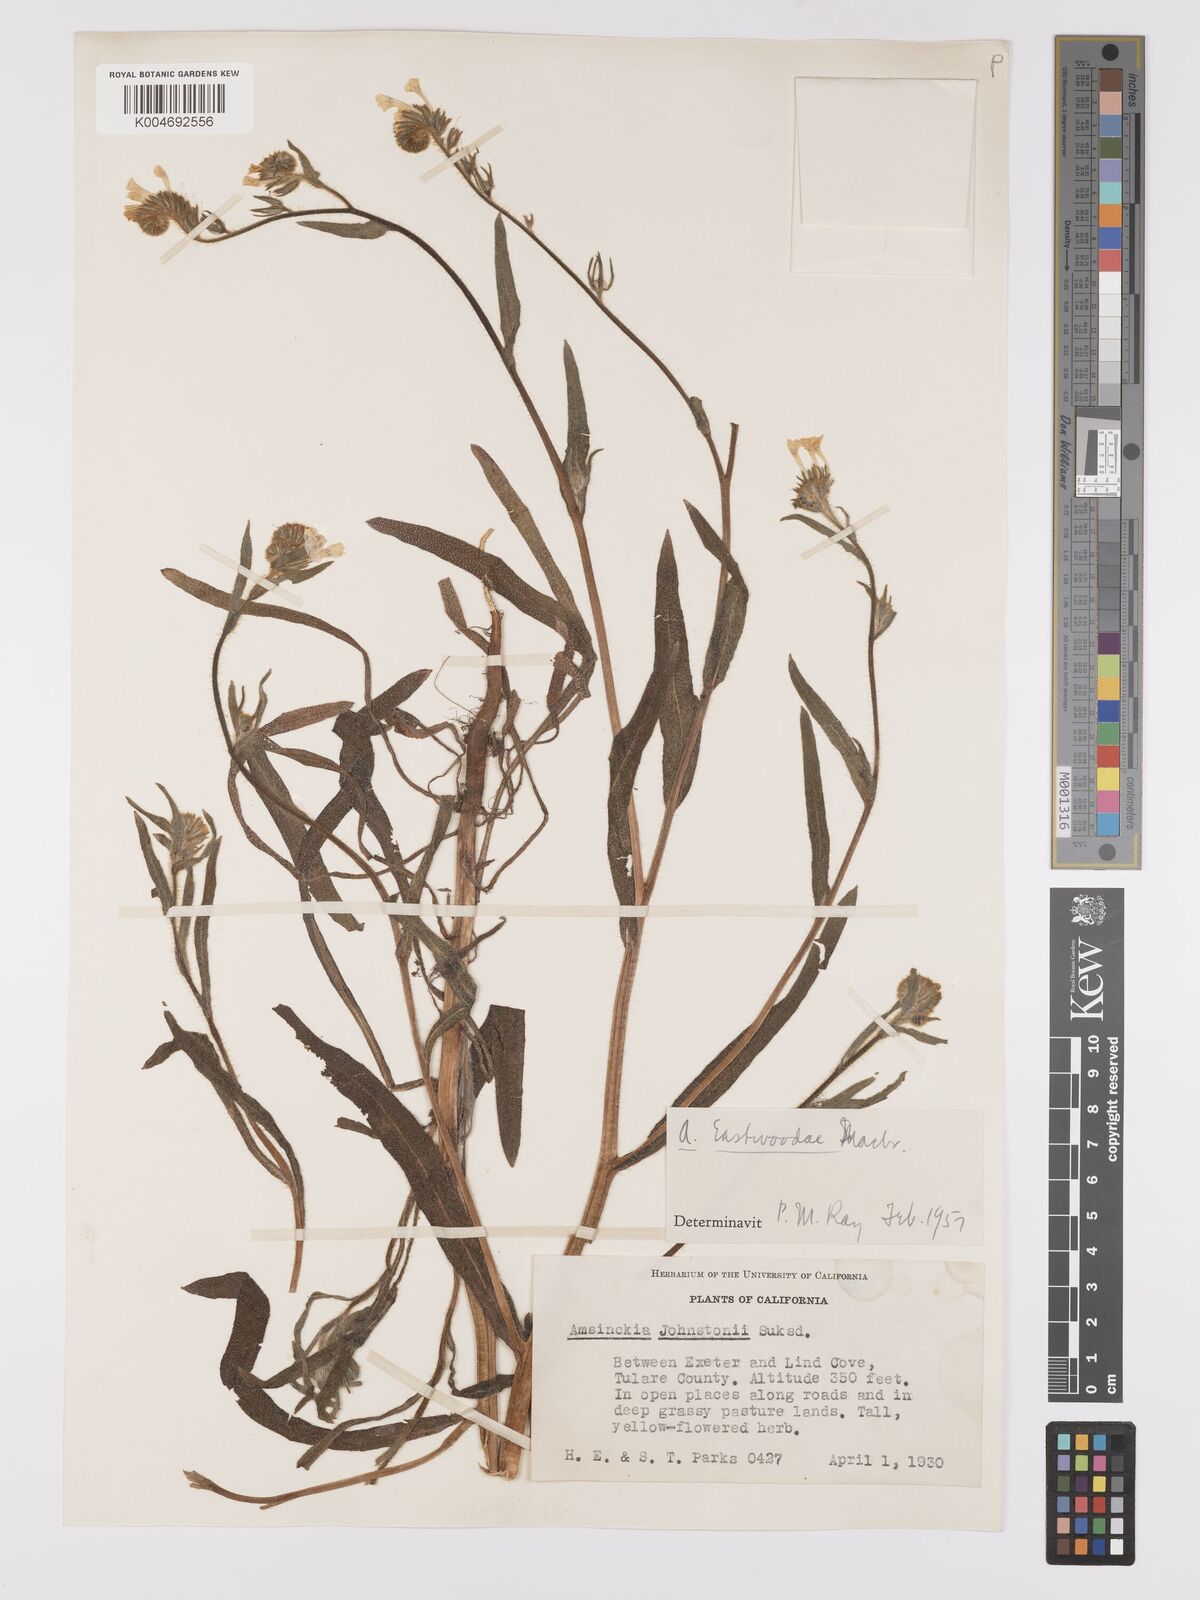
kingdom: Plantae
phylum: Tracheophyta
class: Magnoliopsida
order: Boraginales
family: Boraginaceae
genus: Amsinckia
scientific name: Amsinckia eastwoodiae
